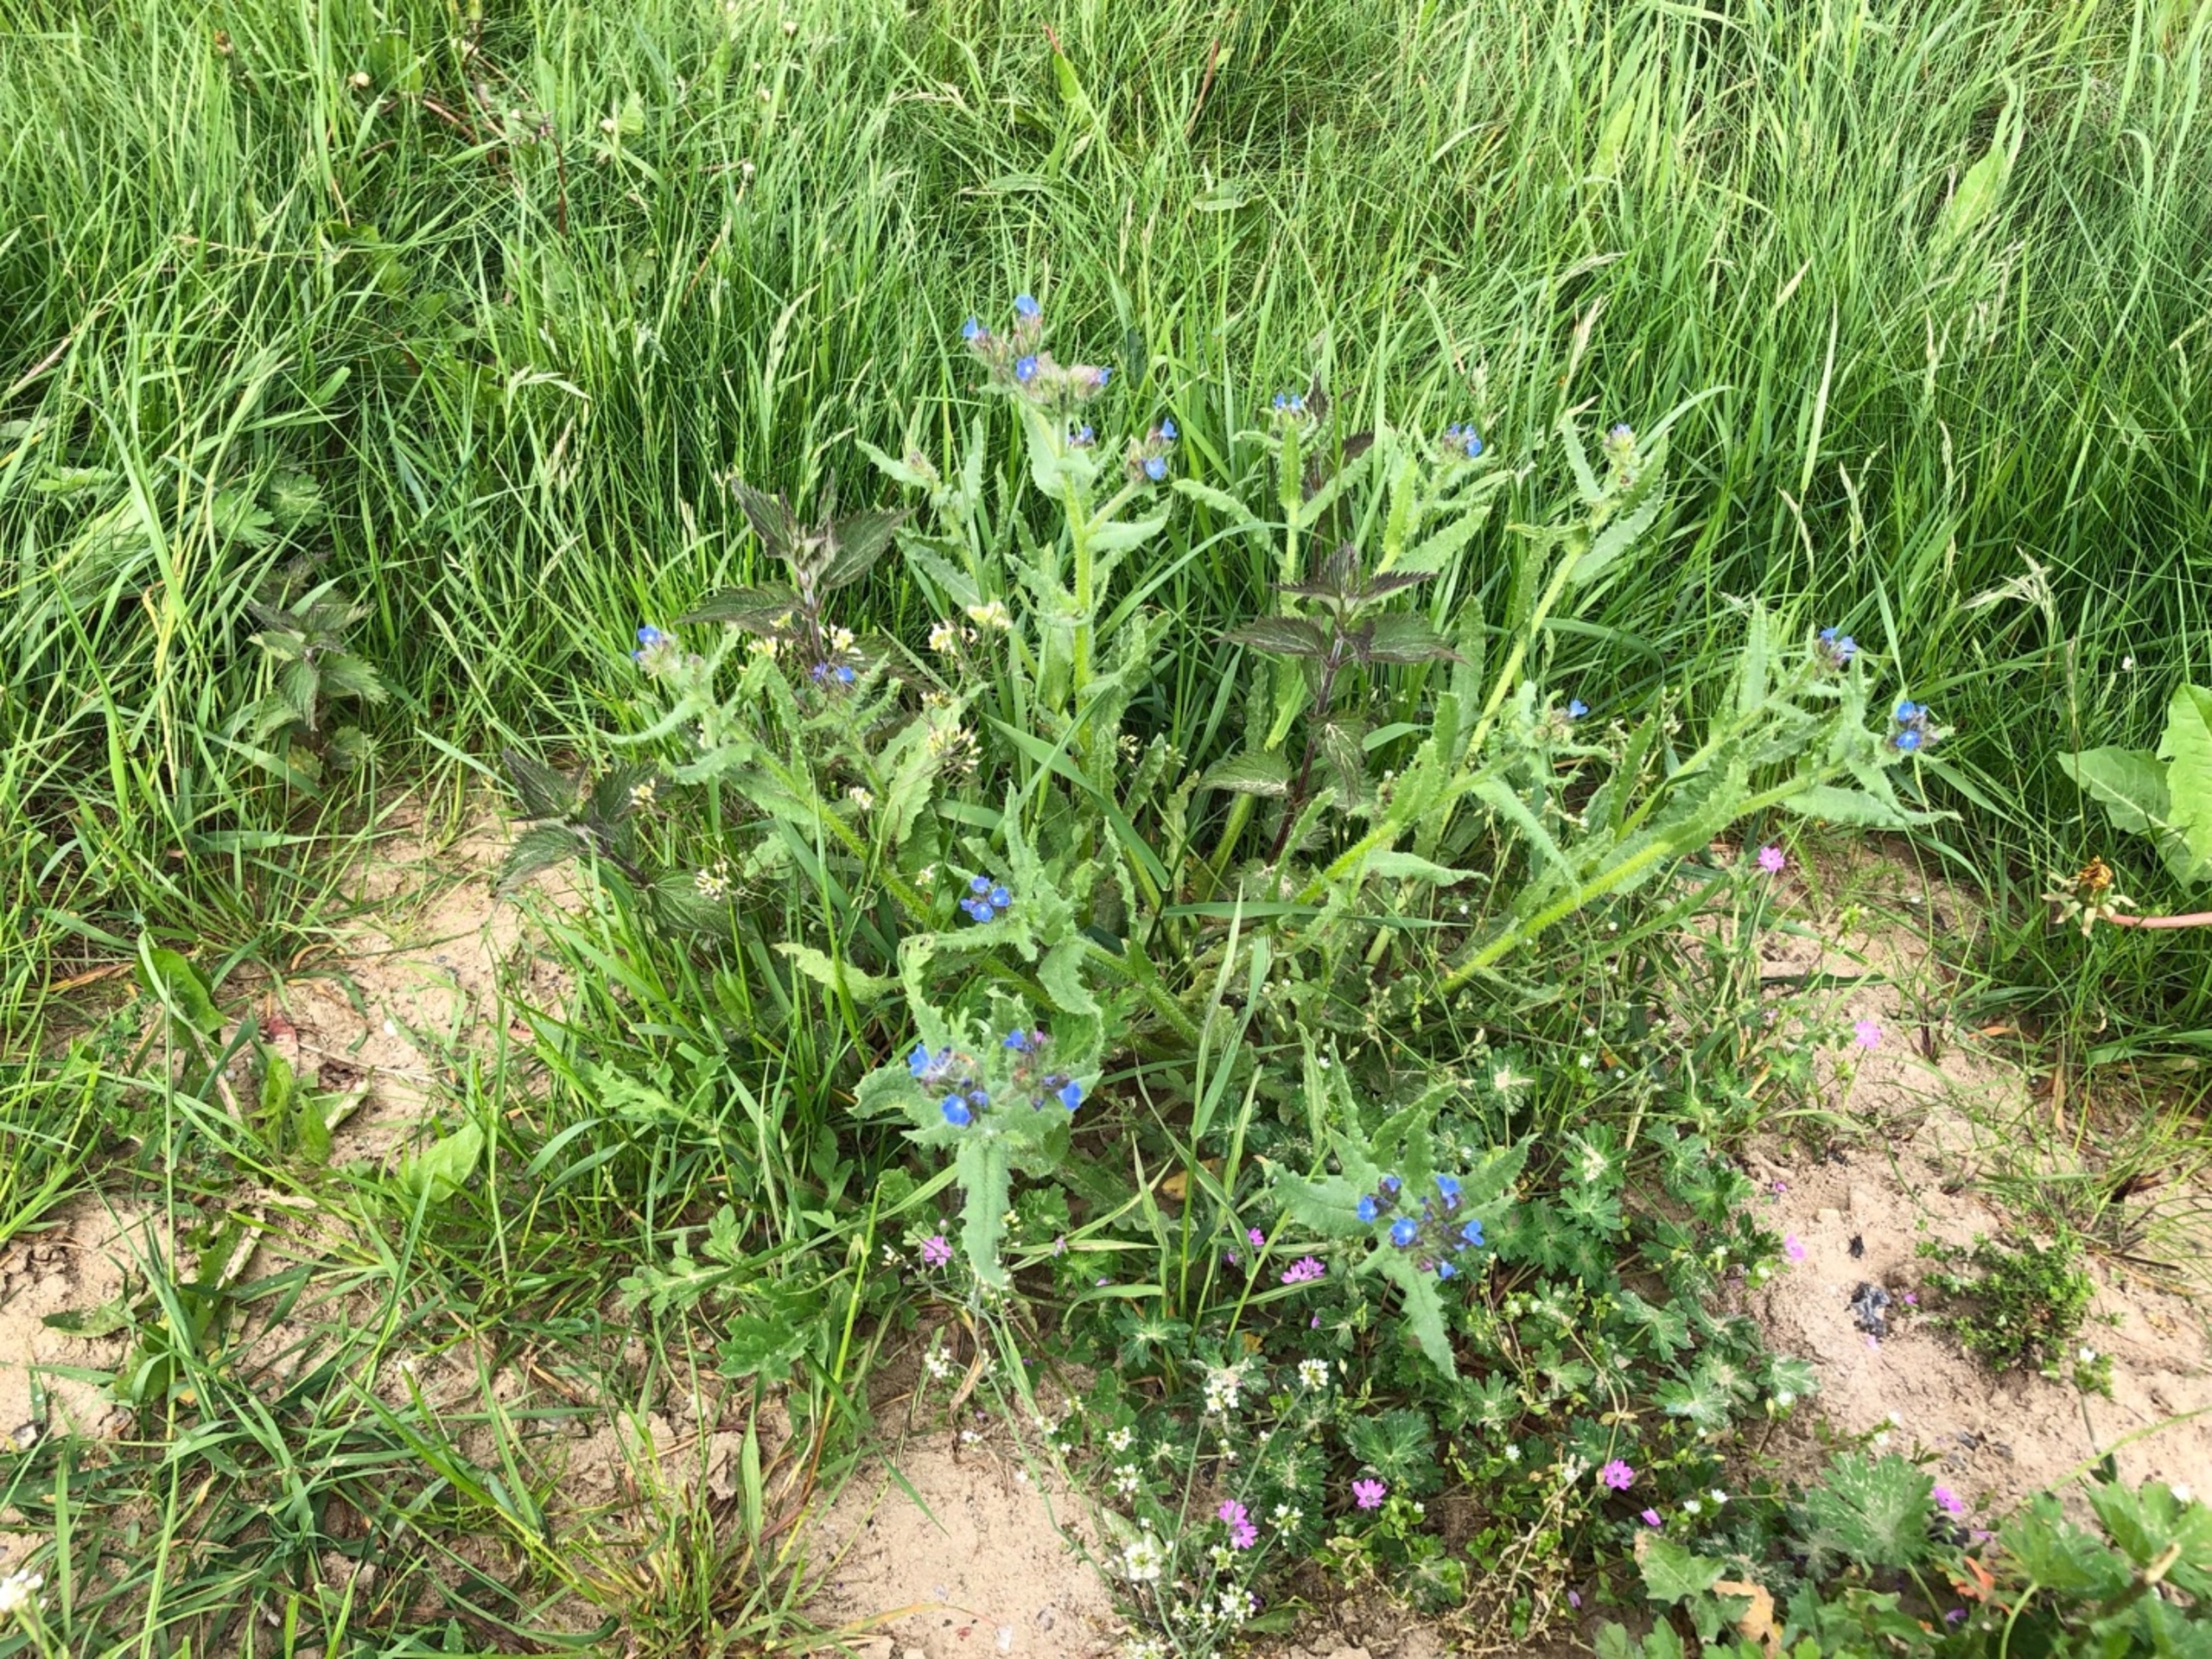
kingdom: Plantae
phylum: Tracheophyta
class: Magnoliopsida
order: Boraginales
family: Boraginaceae
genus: Lycopsis
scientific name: Lycopsis arvensis
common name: Krumhals
